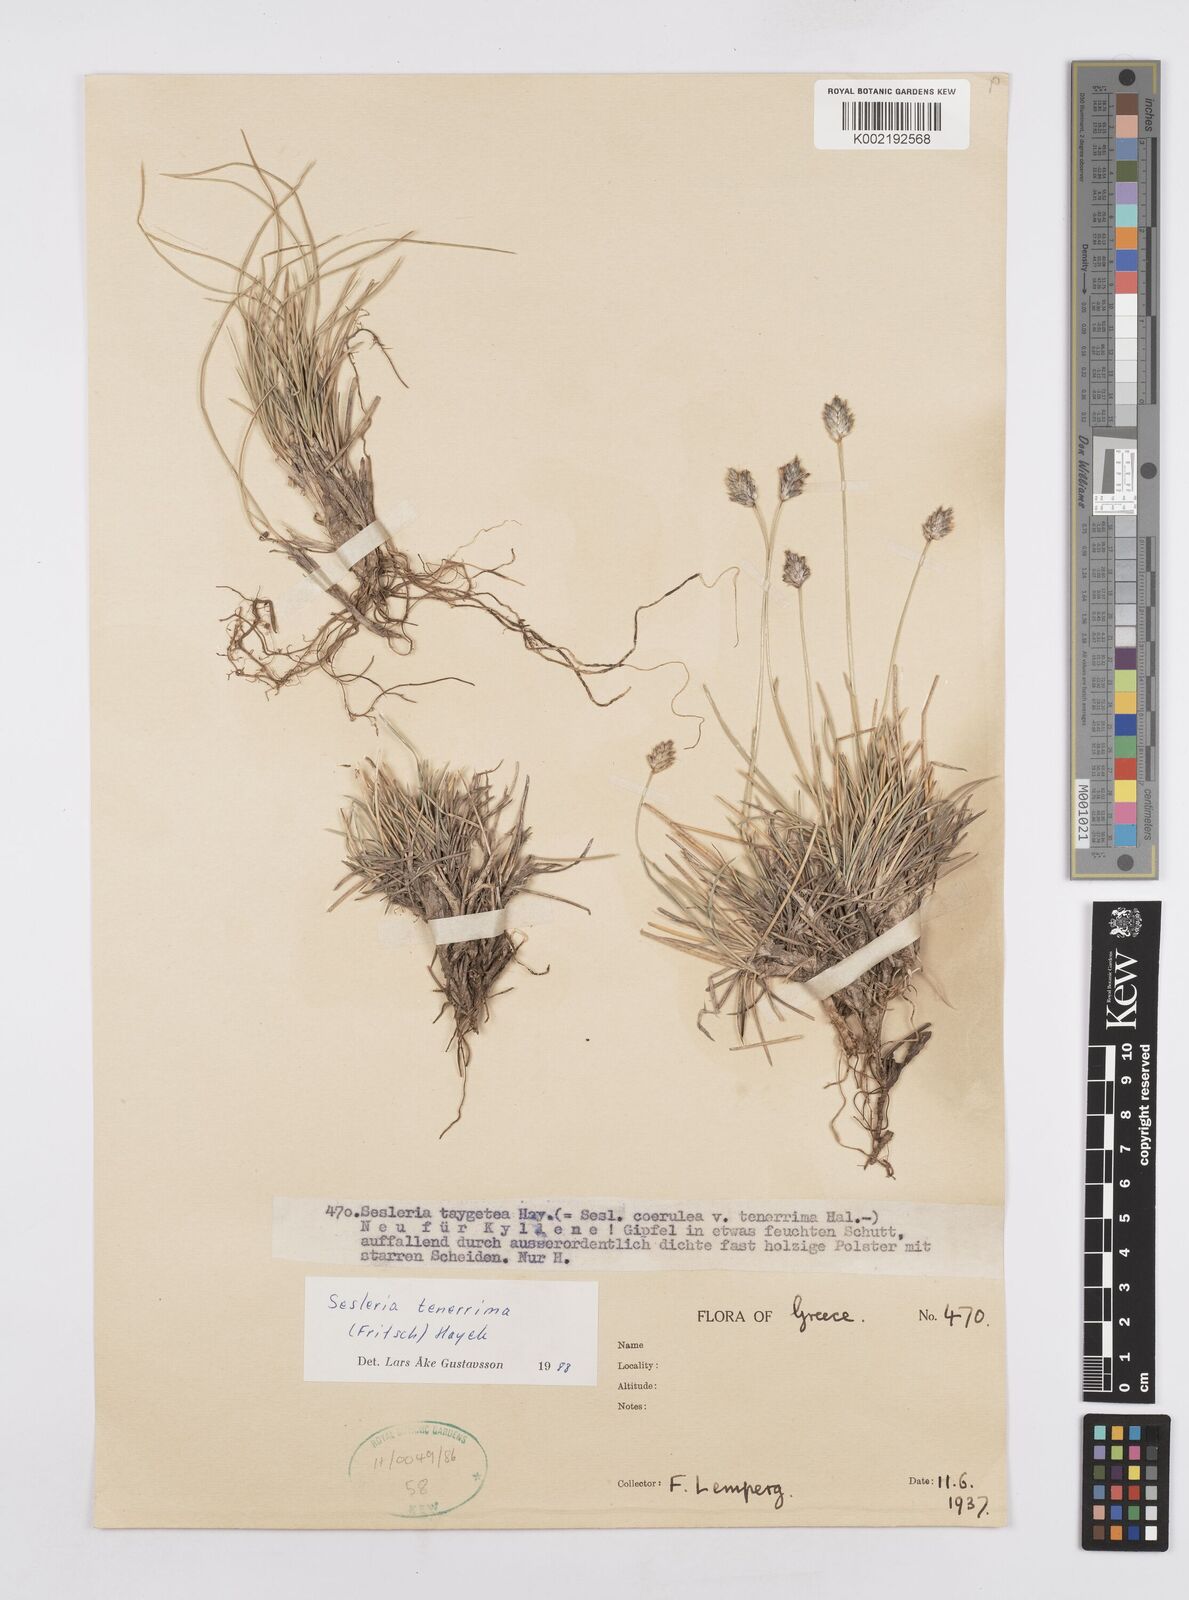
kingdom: Plantae
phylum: Tracheophyta
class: Liliopsida
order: Poales
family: Poaceae
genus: Sesleria
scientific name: Sesleria tenerrima
